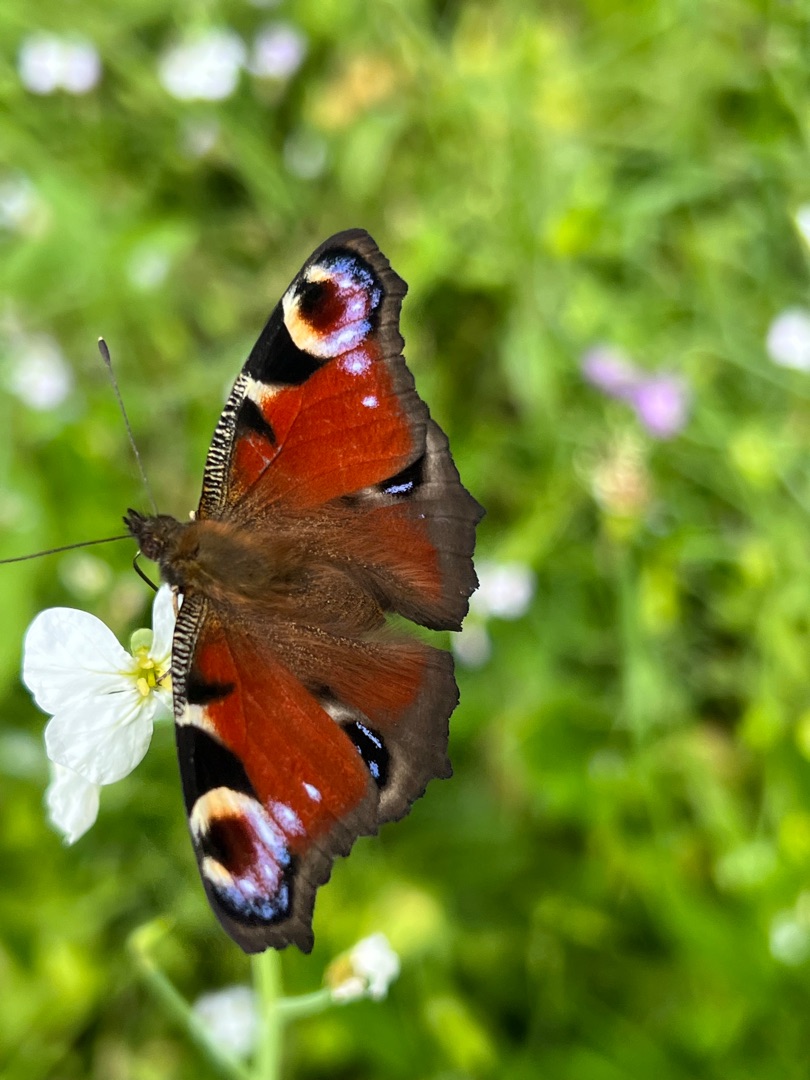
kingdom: Animalia
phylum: Arthropoda
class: Insecta
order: Lepidoptera
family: Nymphalidae
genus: Aglais
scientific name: Aglais io
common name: Dagpåfugleøje
